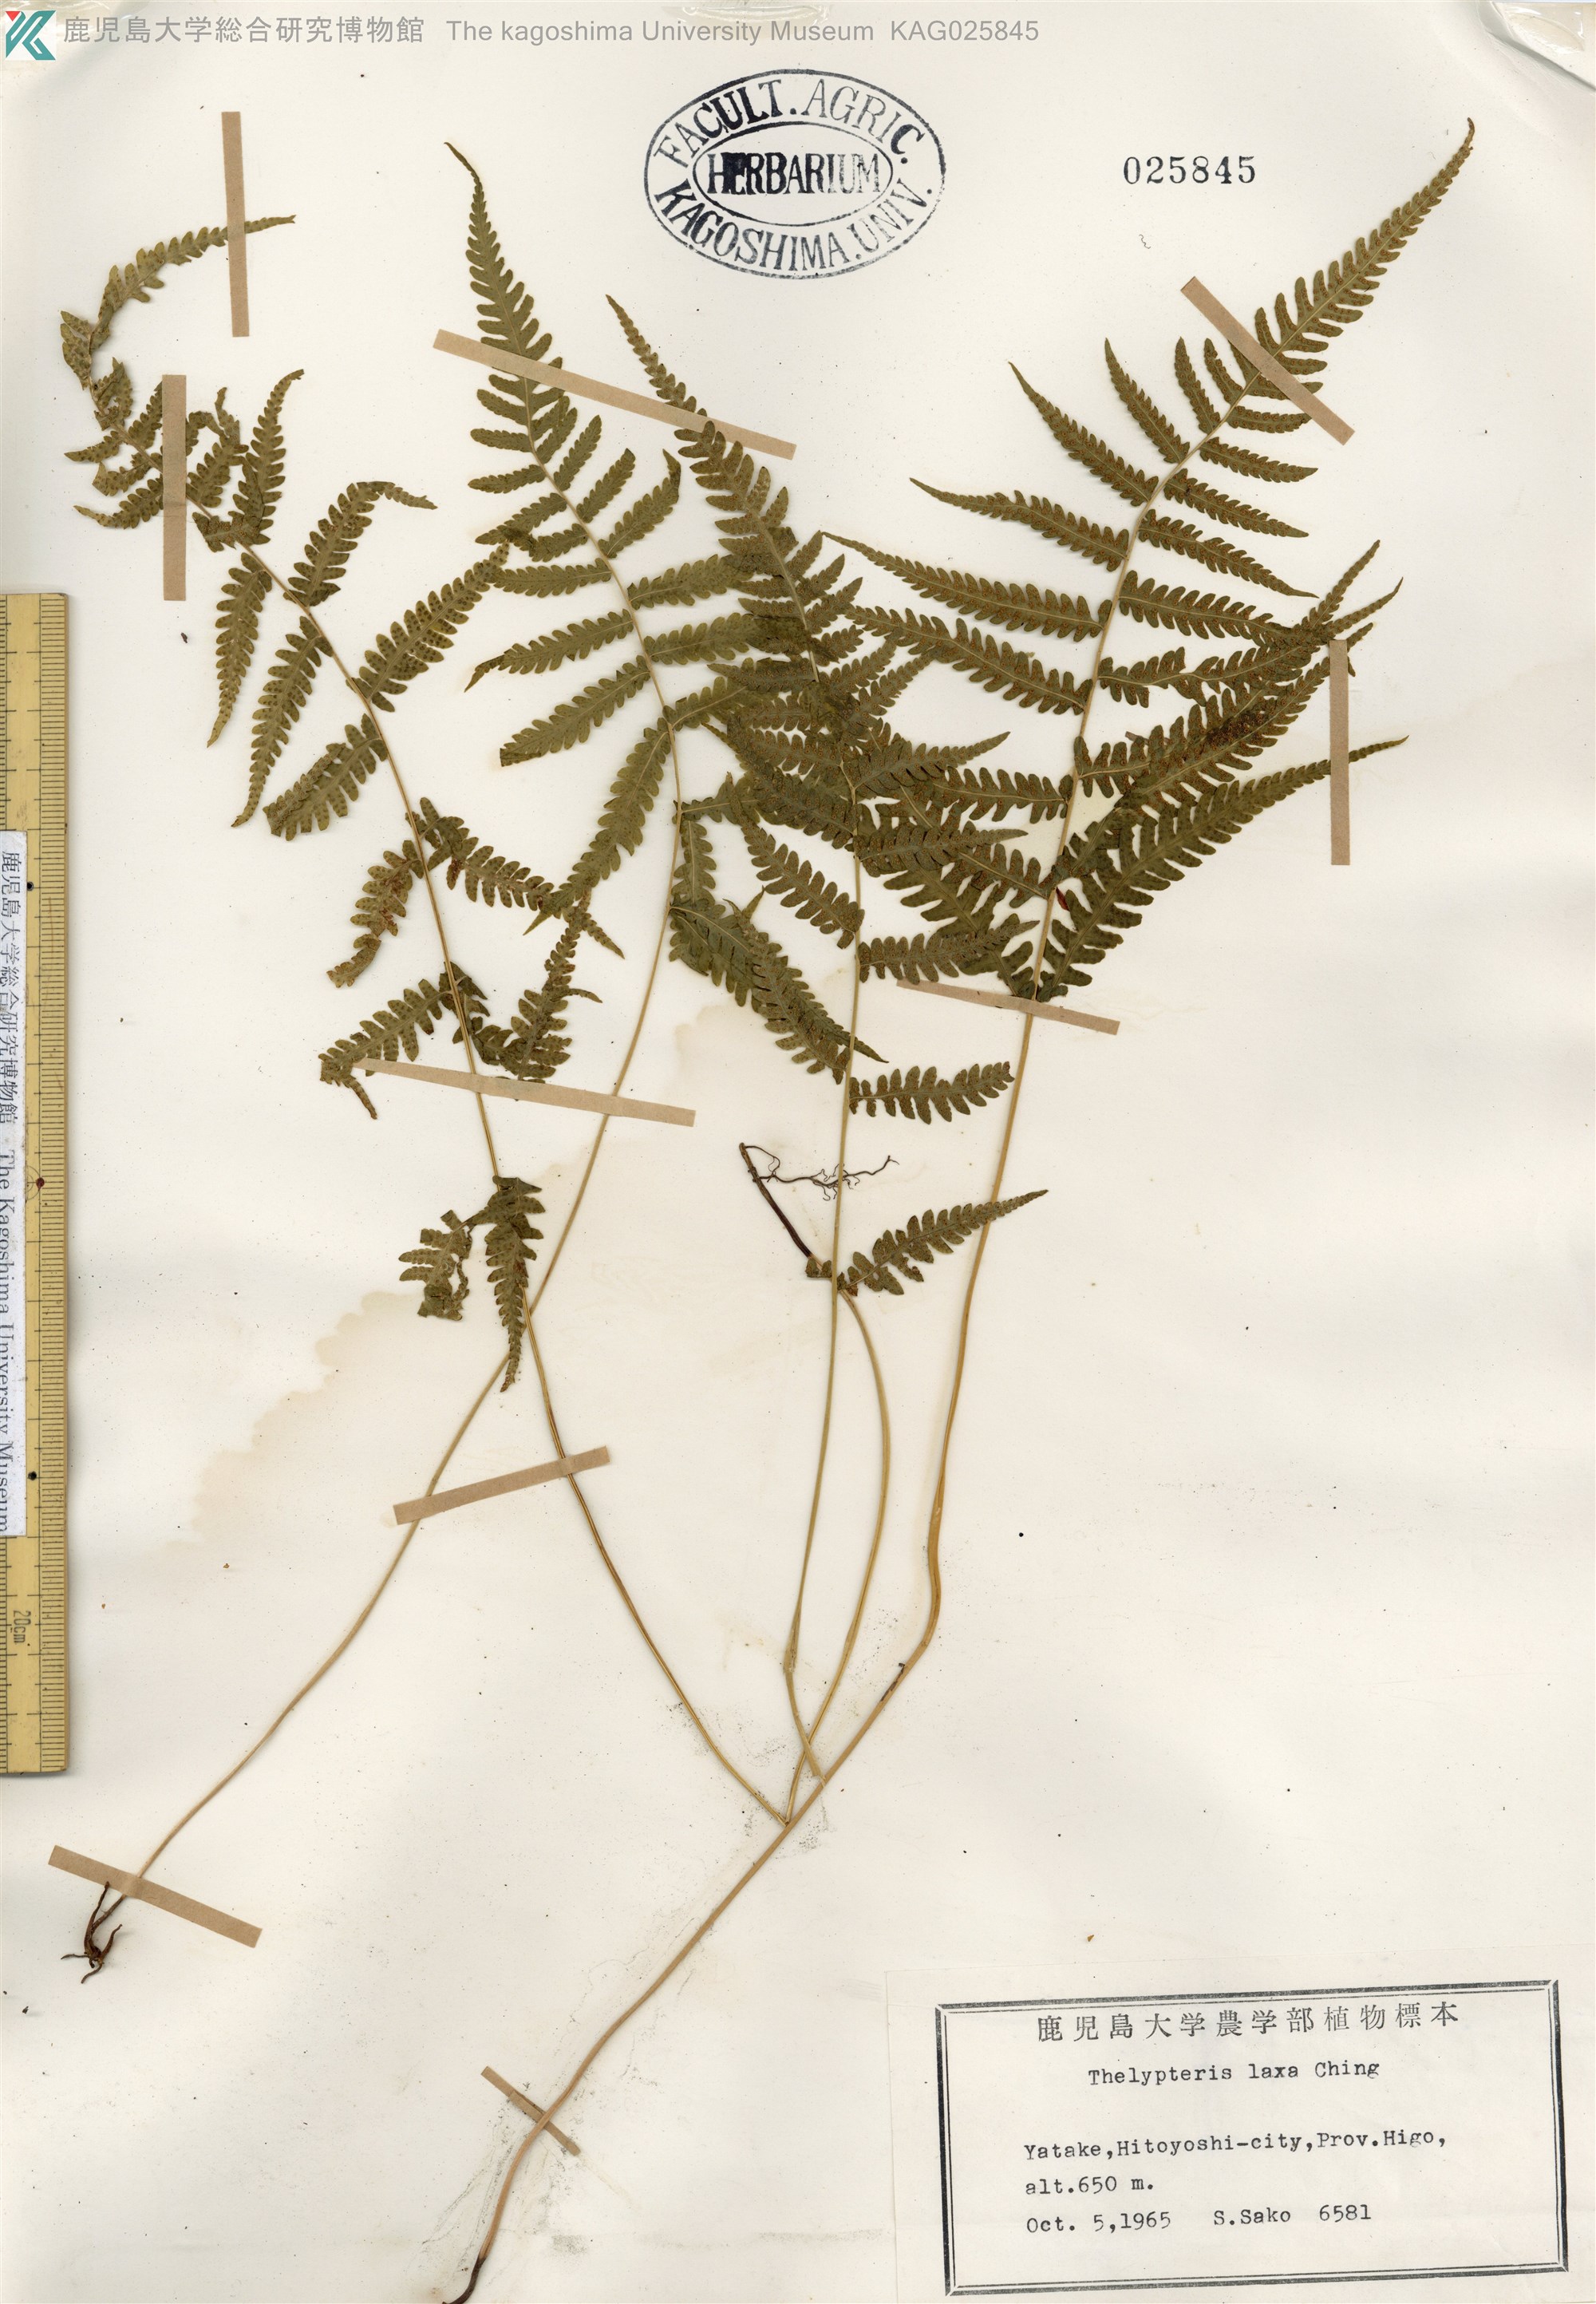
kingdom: Plantae
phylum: Tracheophyta
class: Polypodiopsida
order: Polypodiales
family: Thelypteridaceae
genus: Metathelypteris
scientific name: Metathelypteris laxa
